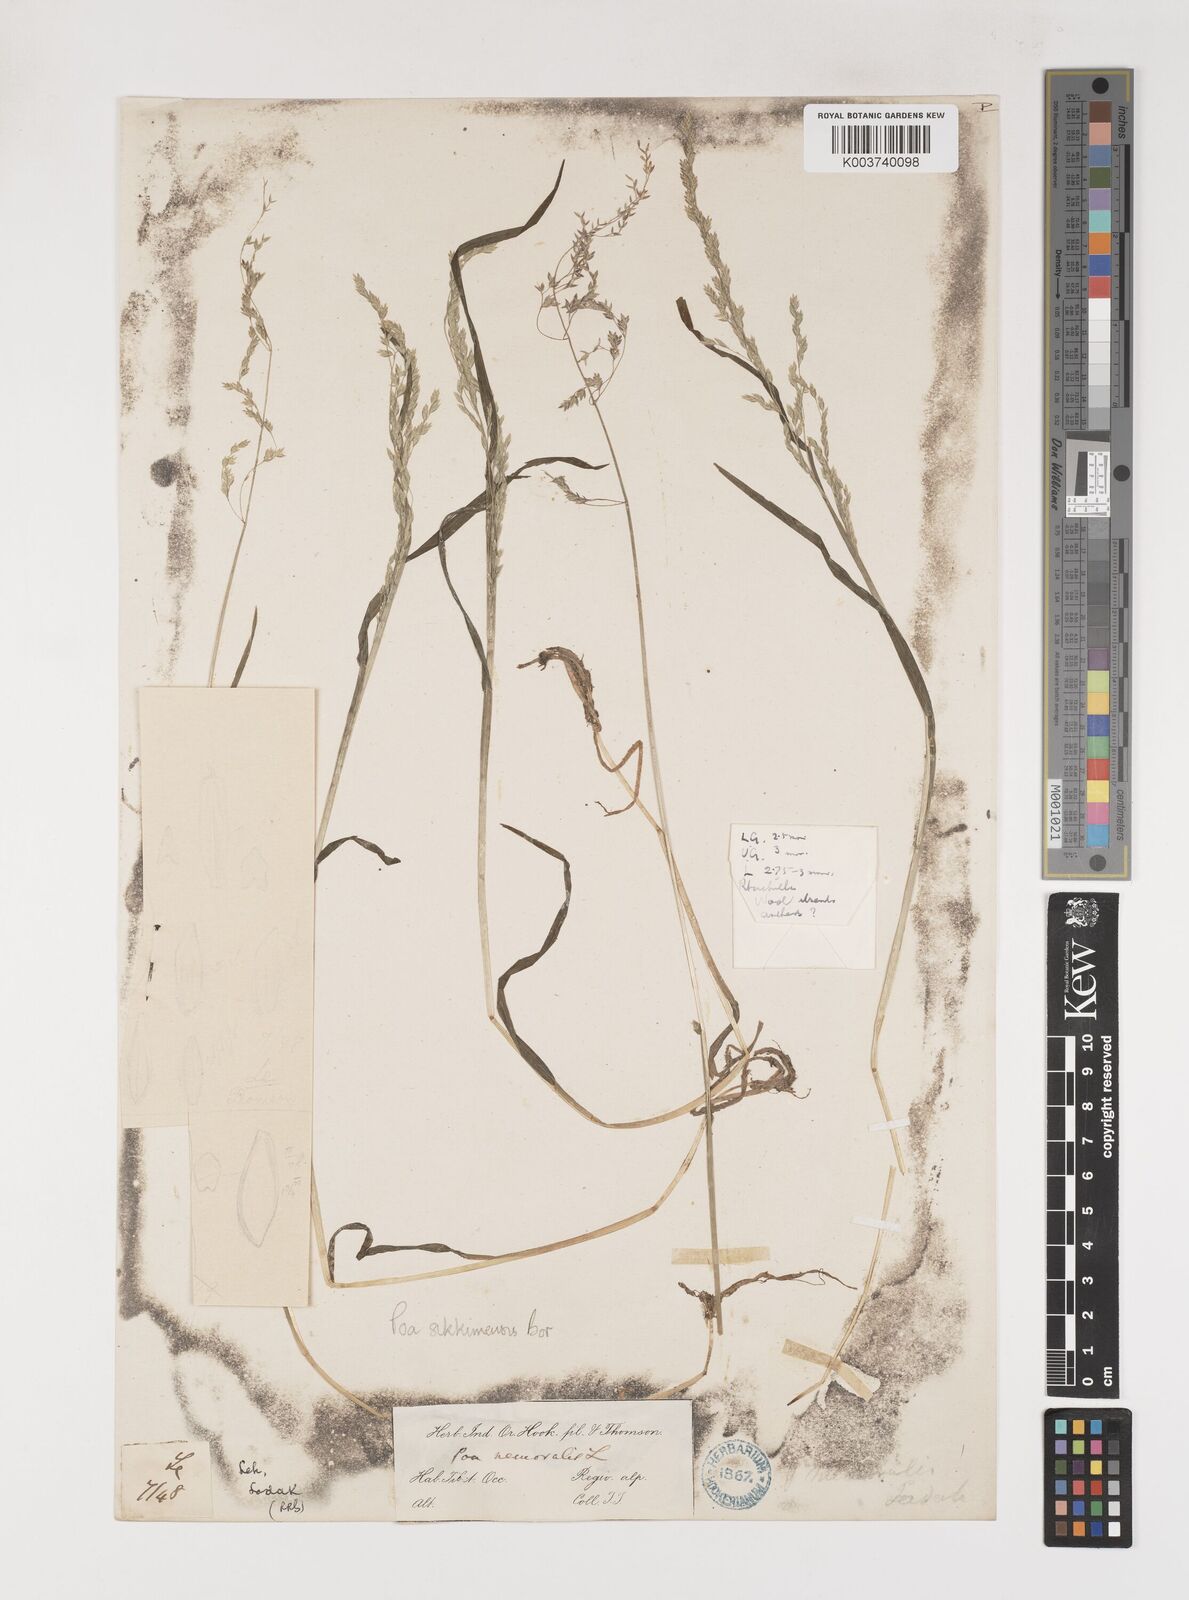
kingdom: Plantae
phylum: Tracheophyta
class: Liliopsida
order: Poales
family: Poaceae
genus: Poa
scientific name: Poa sikkimensis
